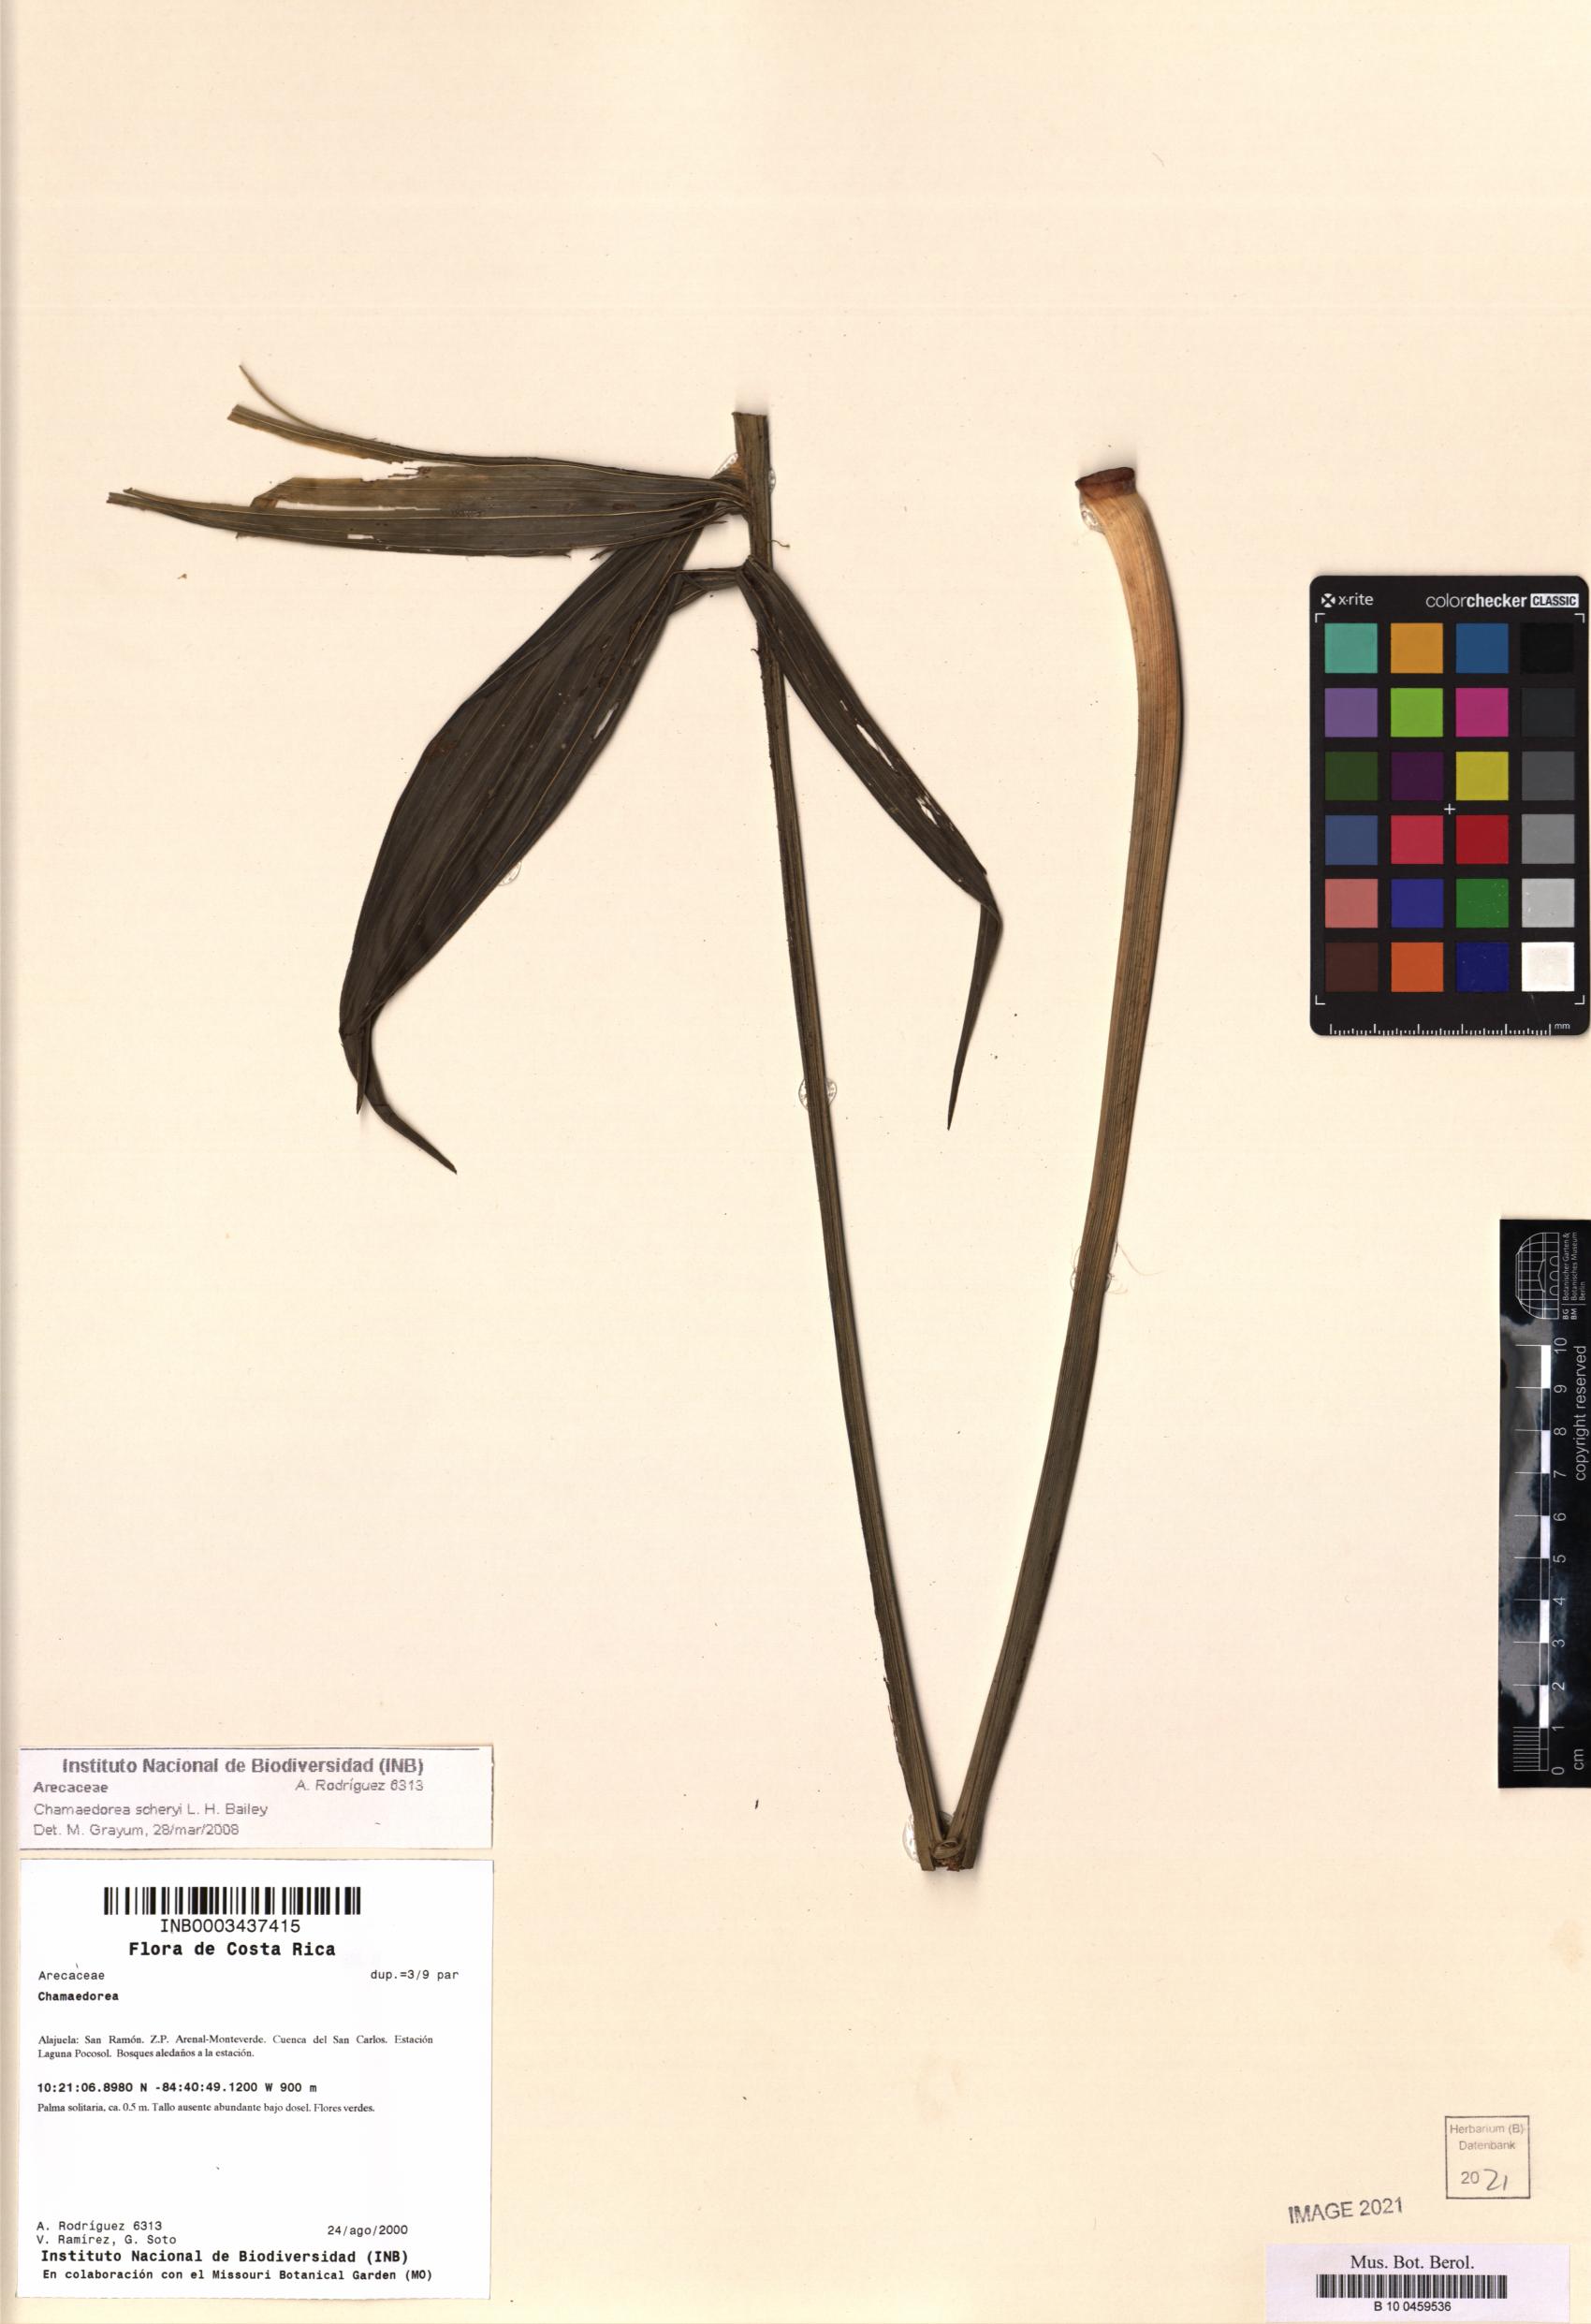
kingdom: Plantae
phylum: Tracheophyta
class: Liliopsida
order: Arecales
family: Arecaceae
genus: Chamaedorea
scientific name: Chamaedorea scheryi
